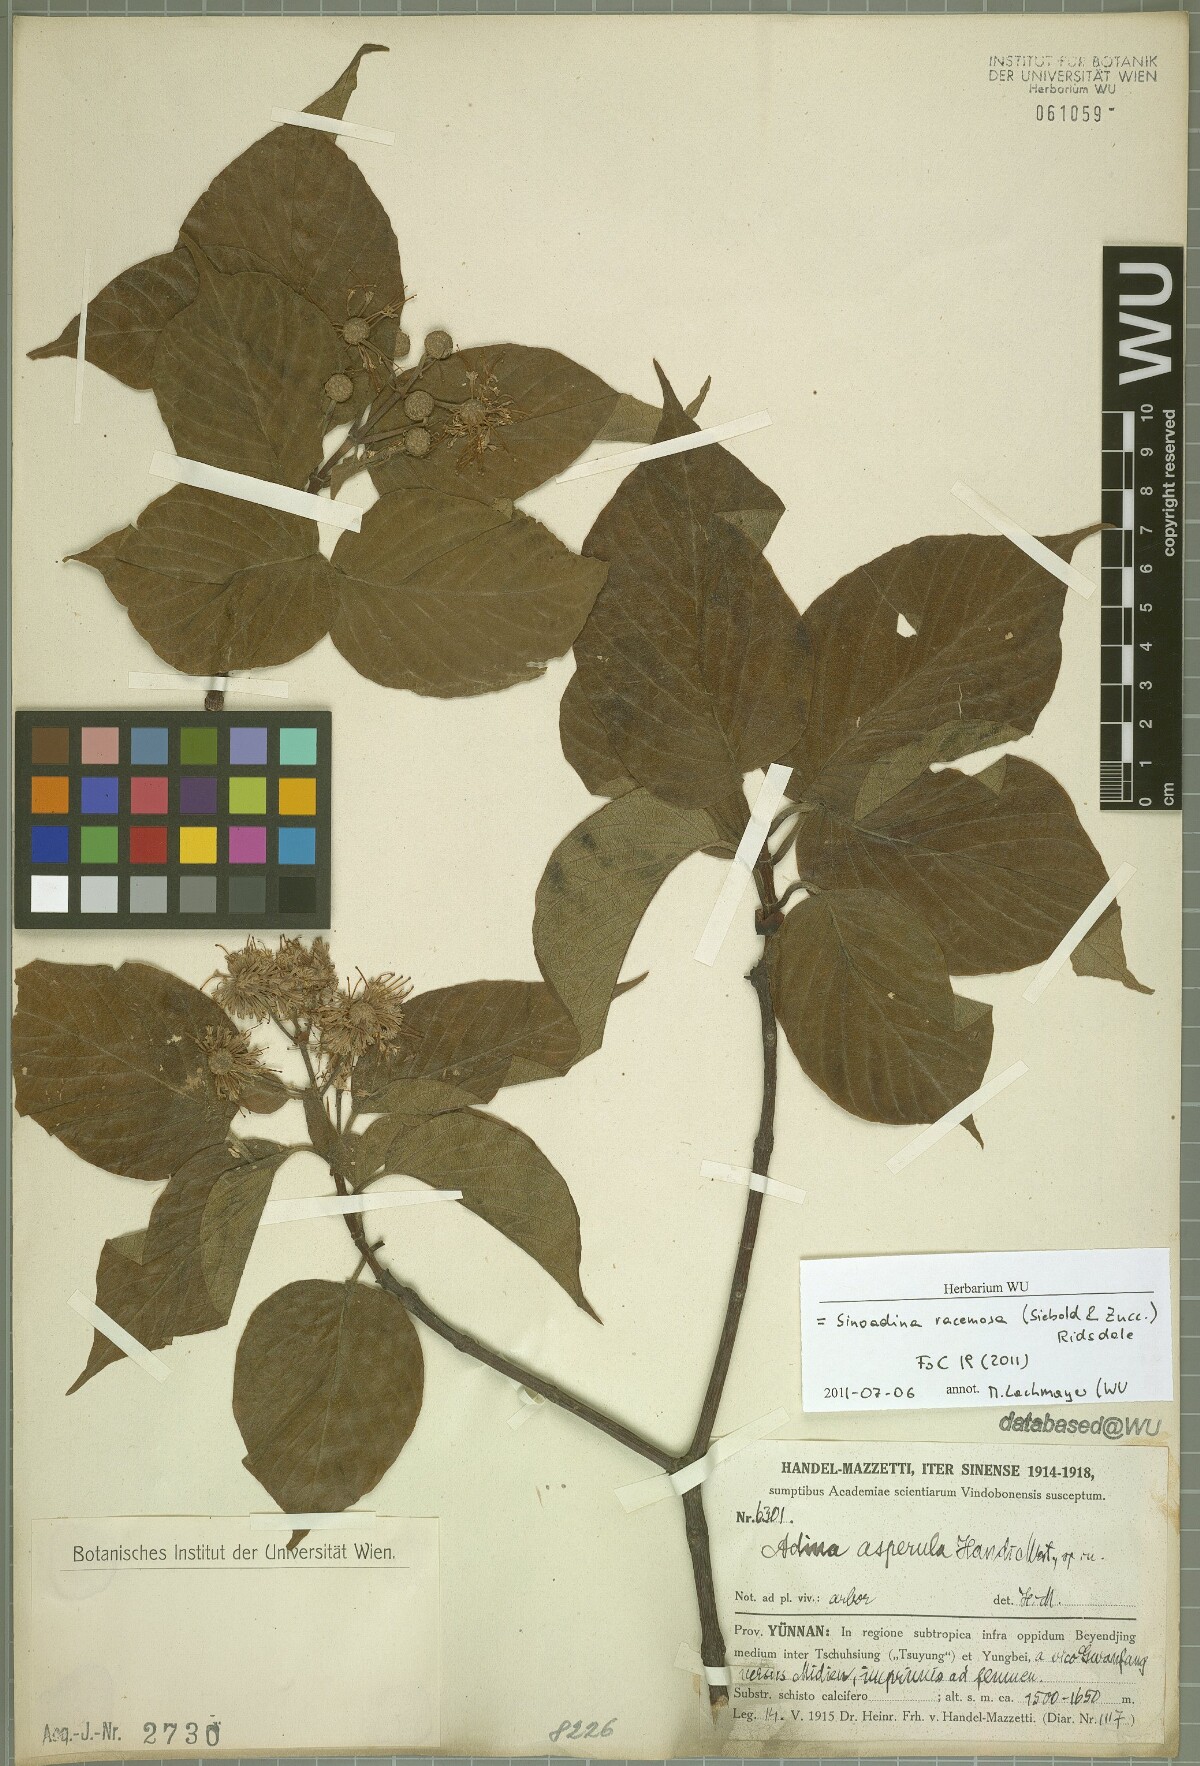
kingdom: Plantae
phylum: Tracheophyta
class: Magnoliopsida
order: Gentianales
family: Rubiaceae
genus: Adina
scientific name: Adina racemosa
